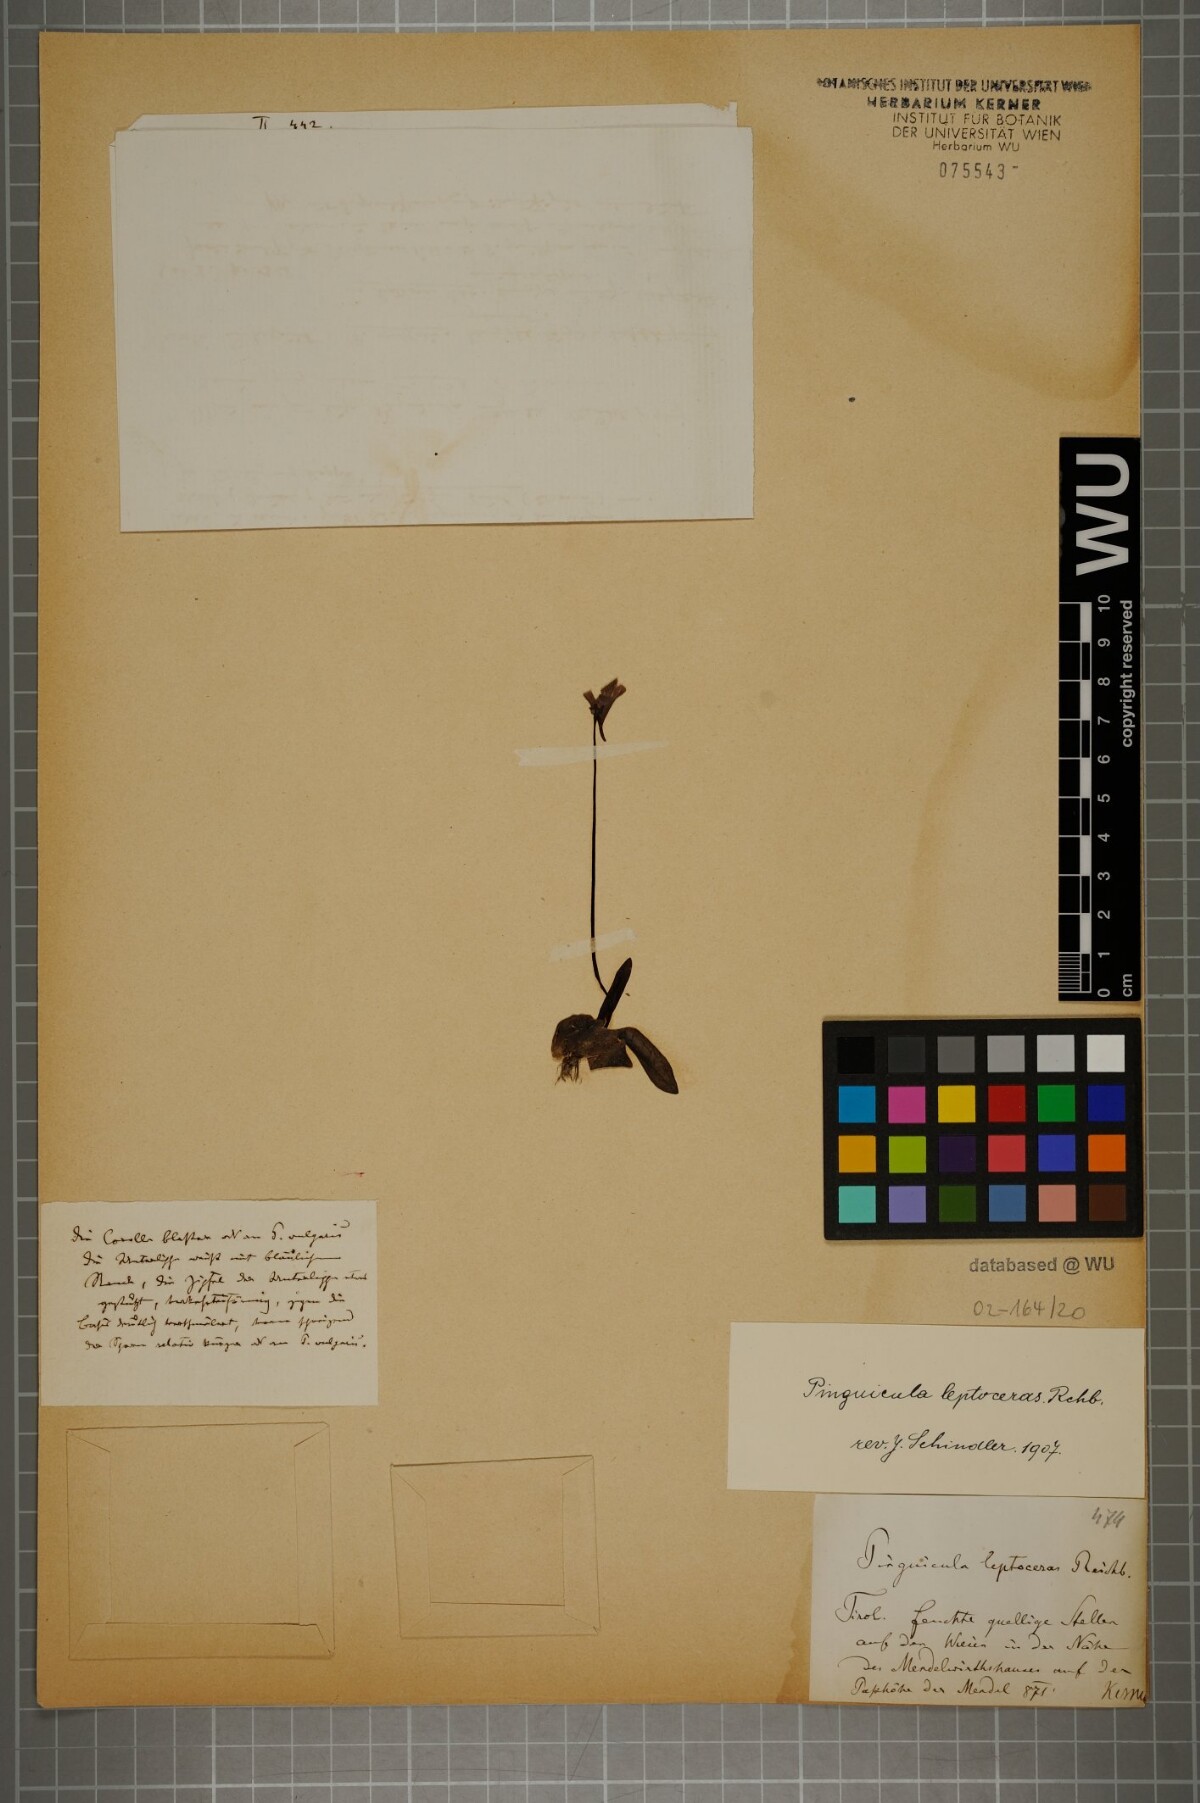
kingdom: Plantae
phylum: Tracheophyta
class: Magnoliopsida
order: Lamiales
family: Lentibulariaceae
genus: Pinguicula
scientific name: Pinguicula leptoceras
